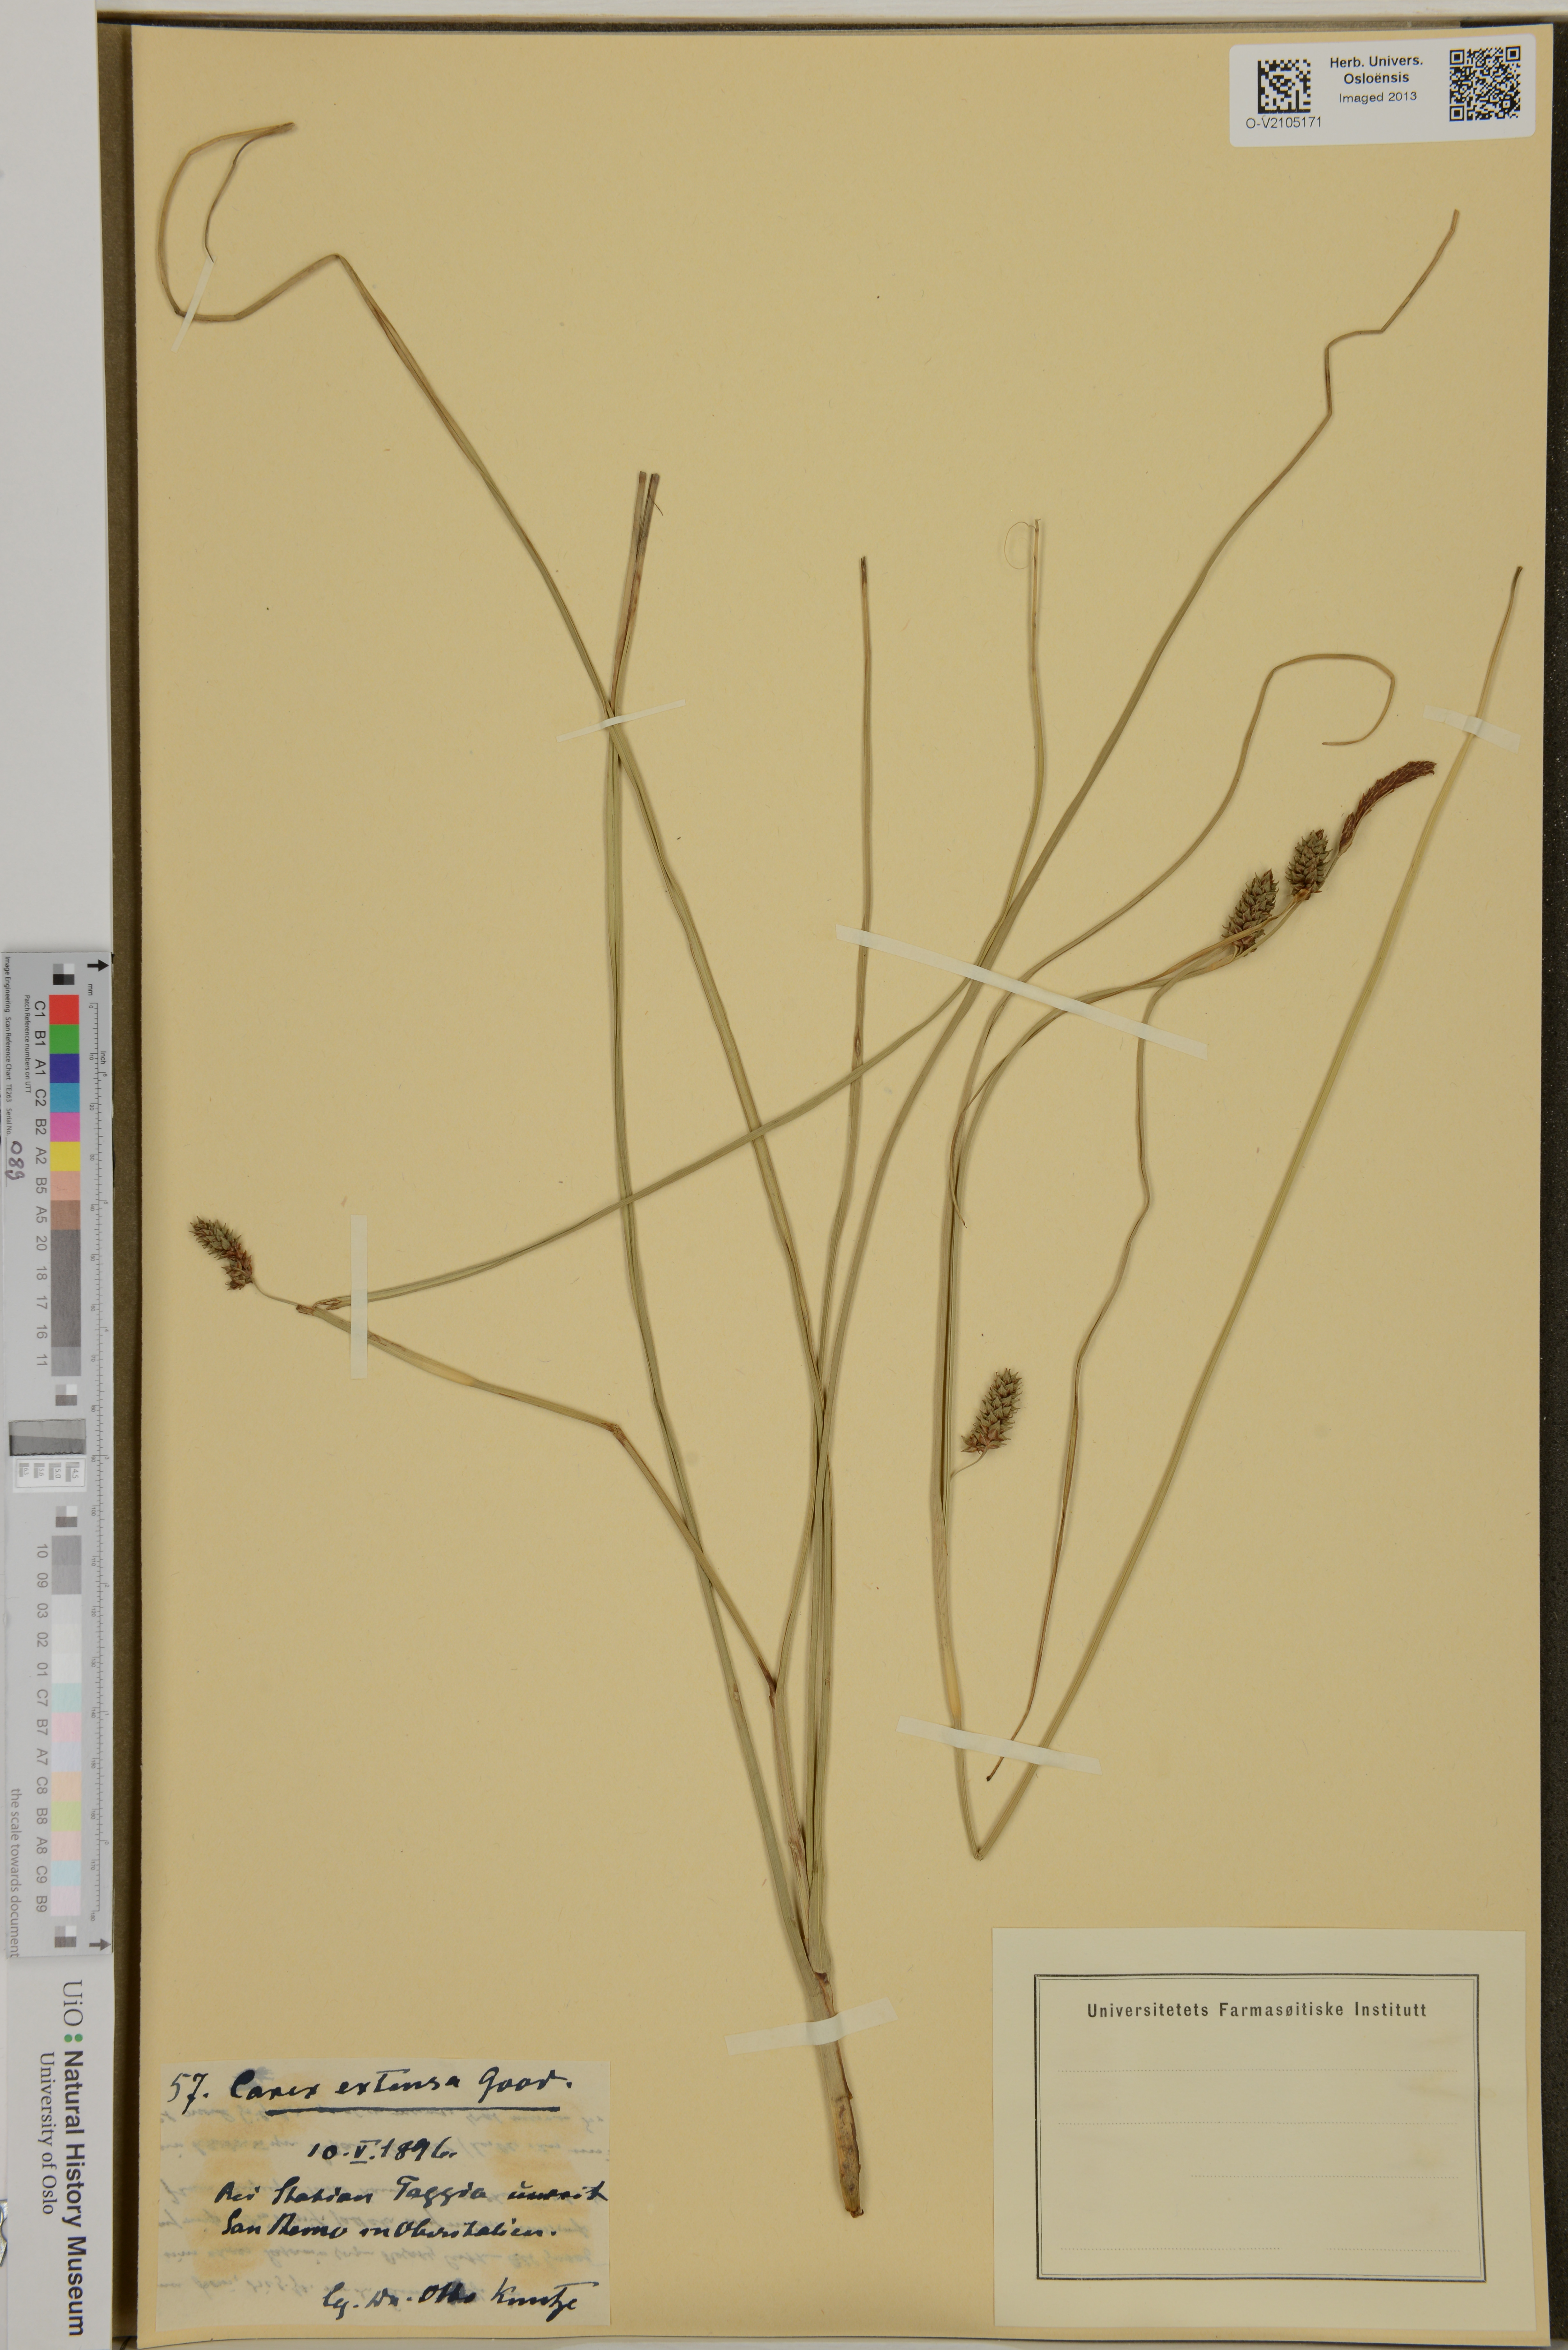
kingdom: Plantae
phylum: Tracheophyta
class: Liliopsida
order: Poales
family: Cyperaceae
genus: Carex
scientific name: Carex extensa
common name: Long-bracted sedge
